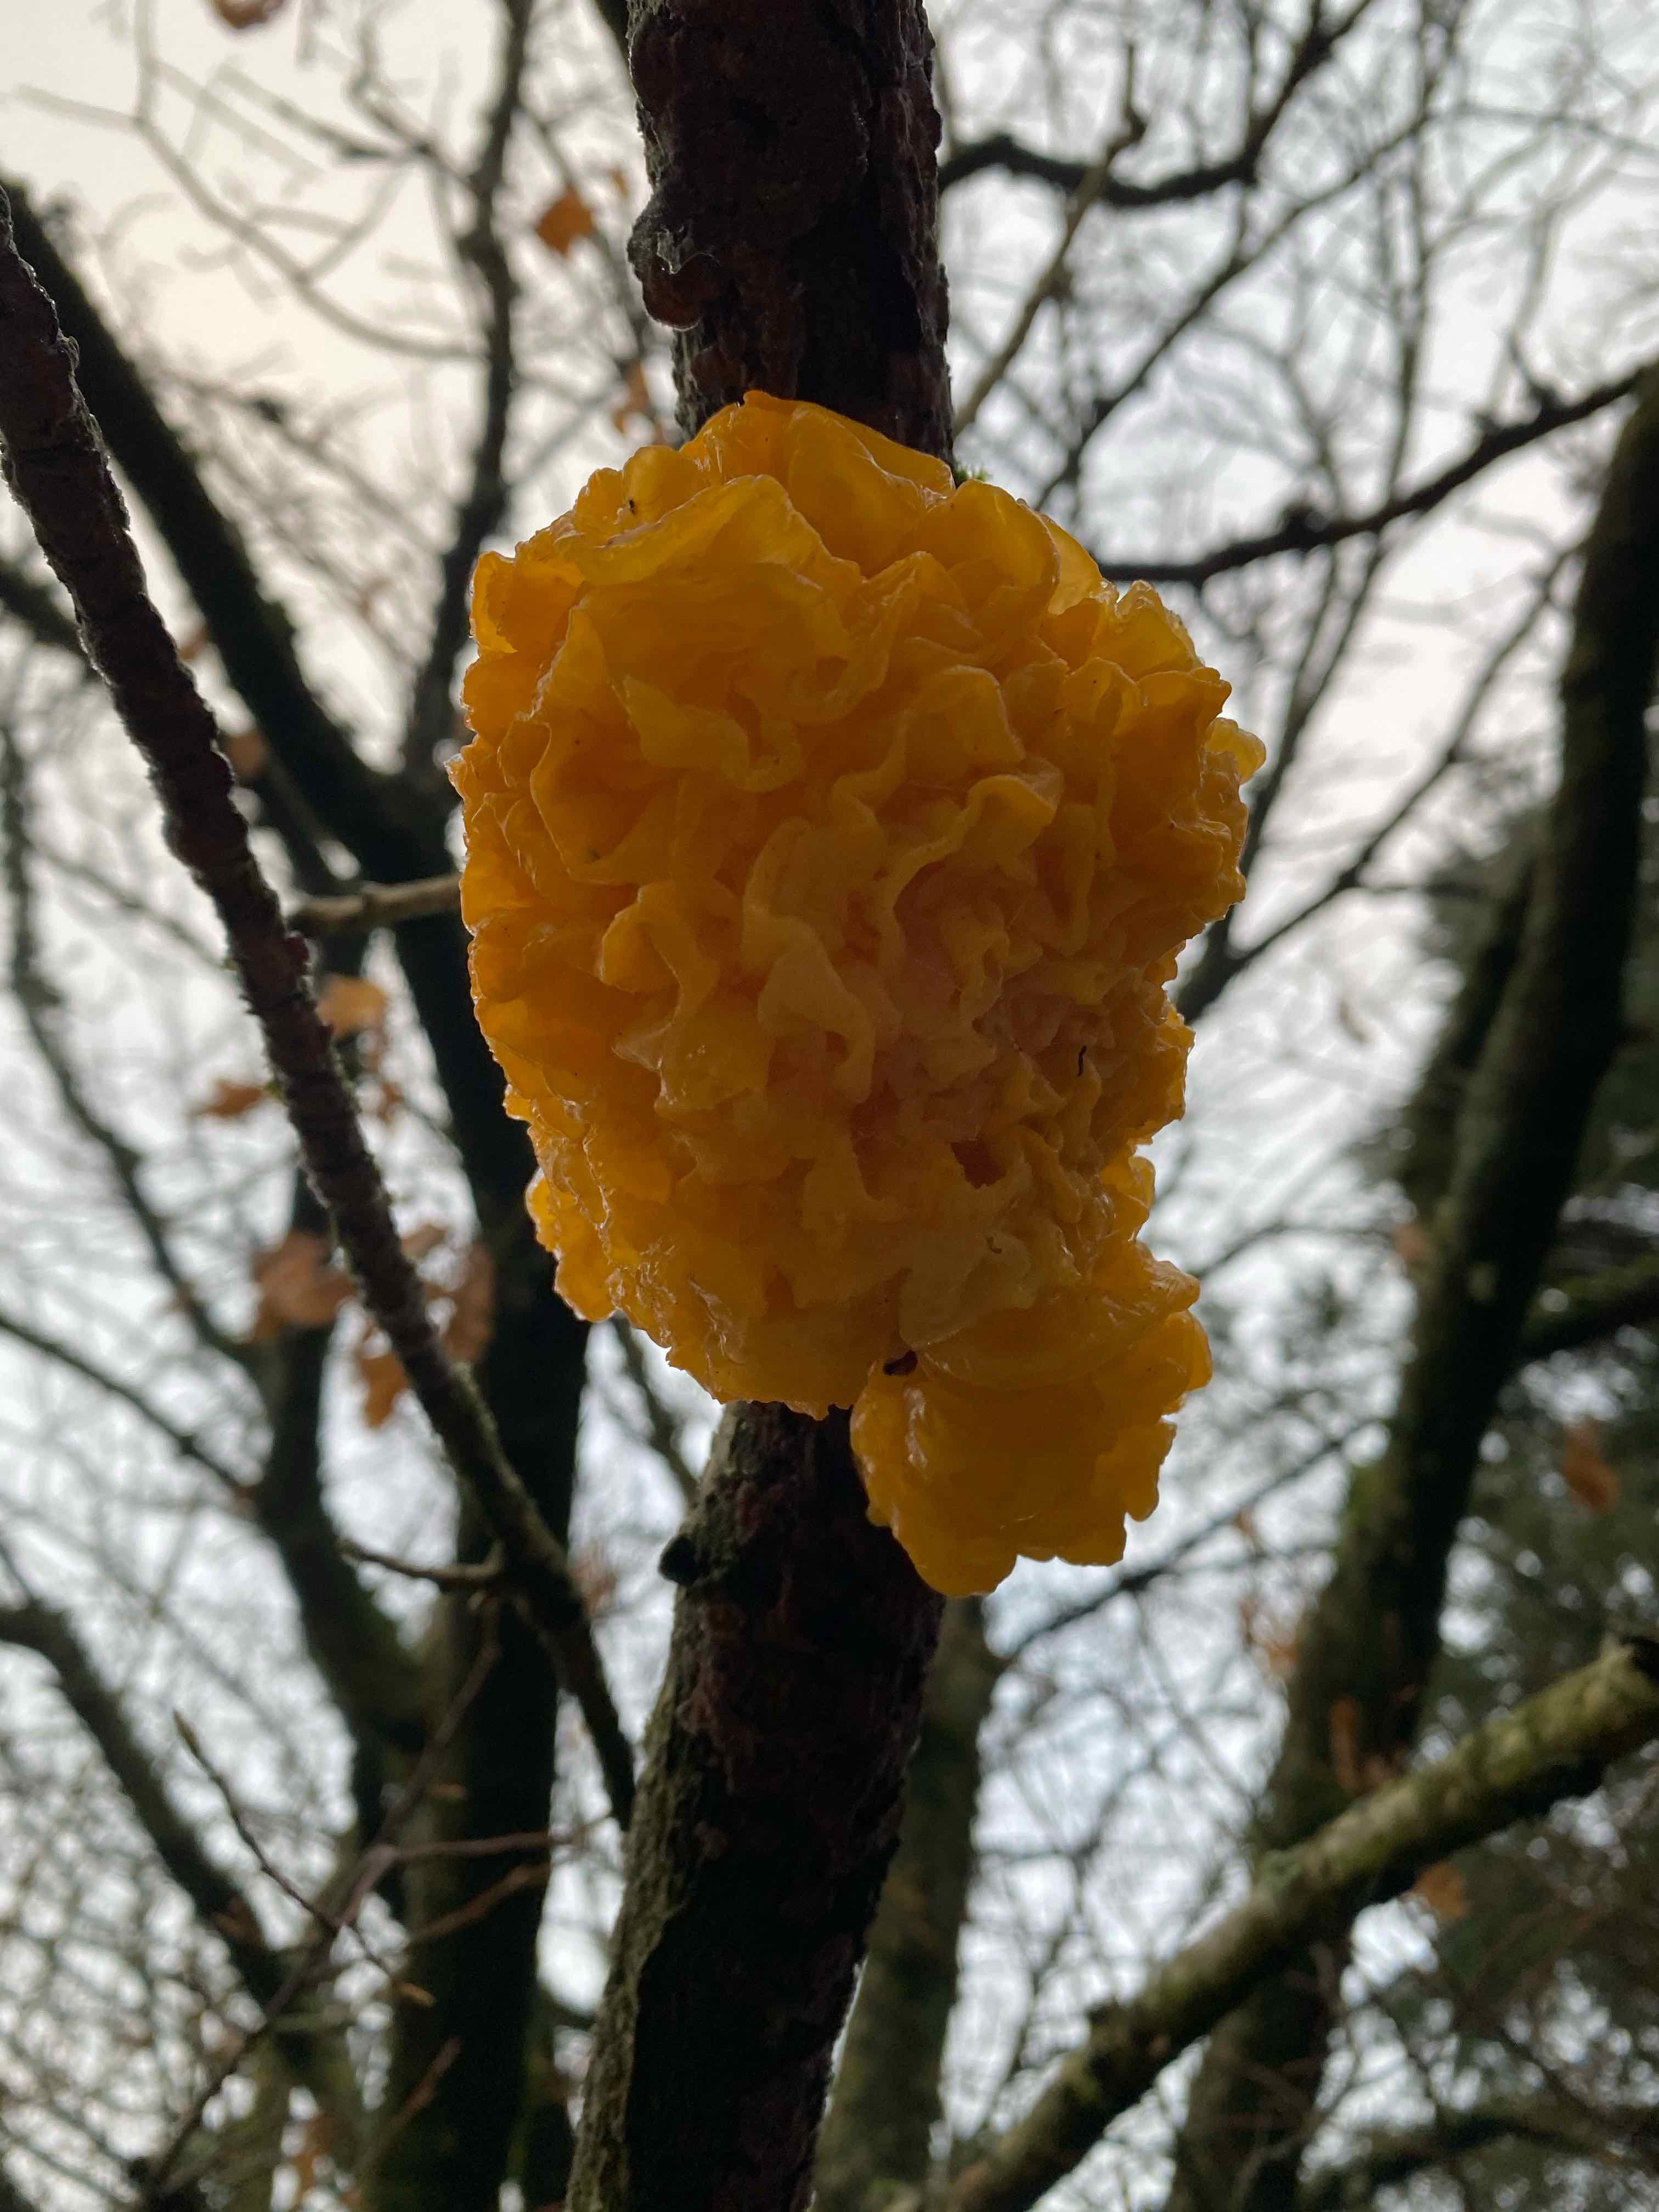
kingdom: Fungi
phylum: Basidiomycota
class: Tremellomycetes
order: Tremellales
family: Tremellaceae
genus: Tremella
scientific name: Tremella mesenterica
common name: gul bævresvamp
